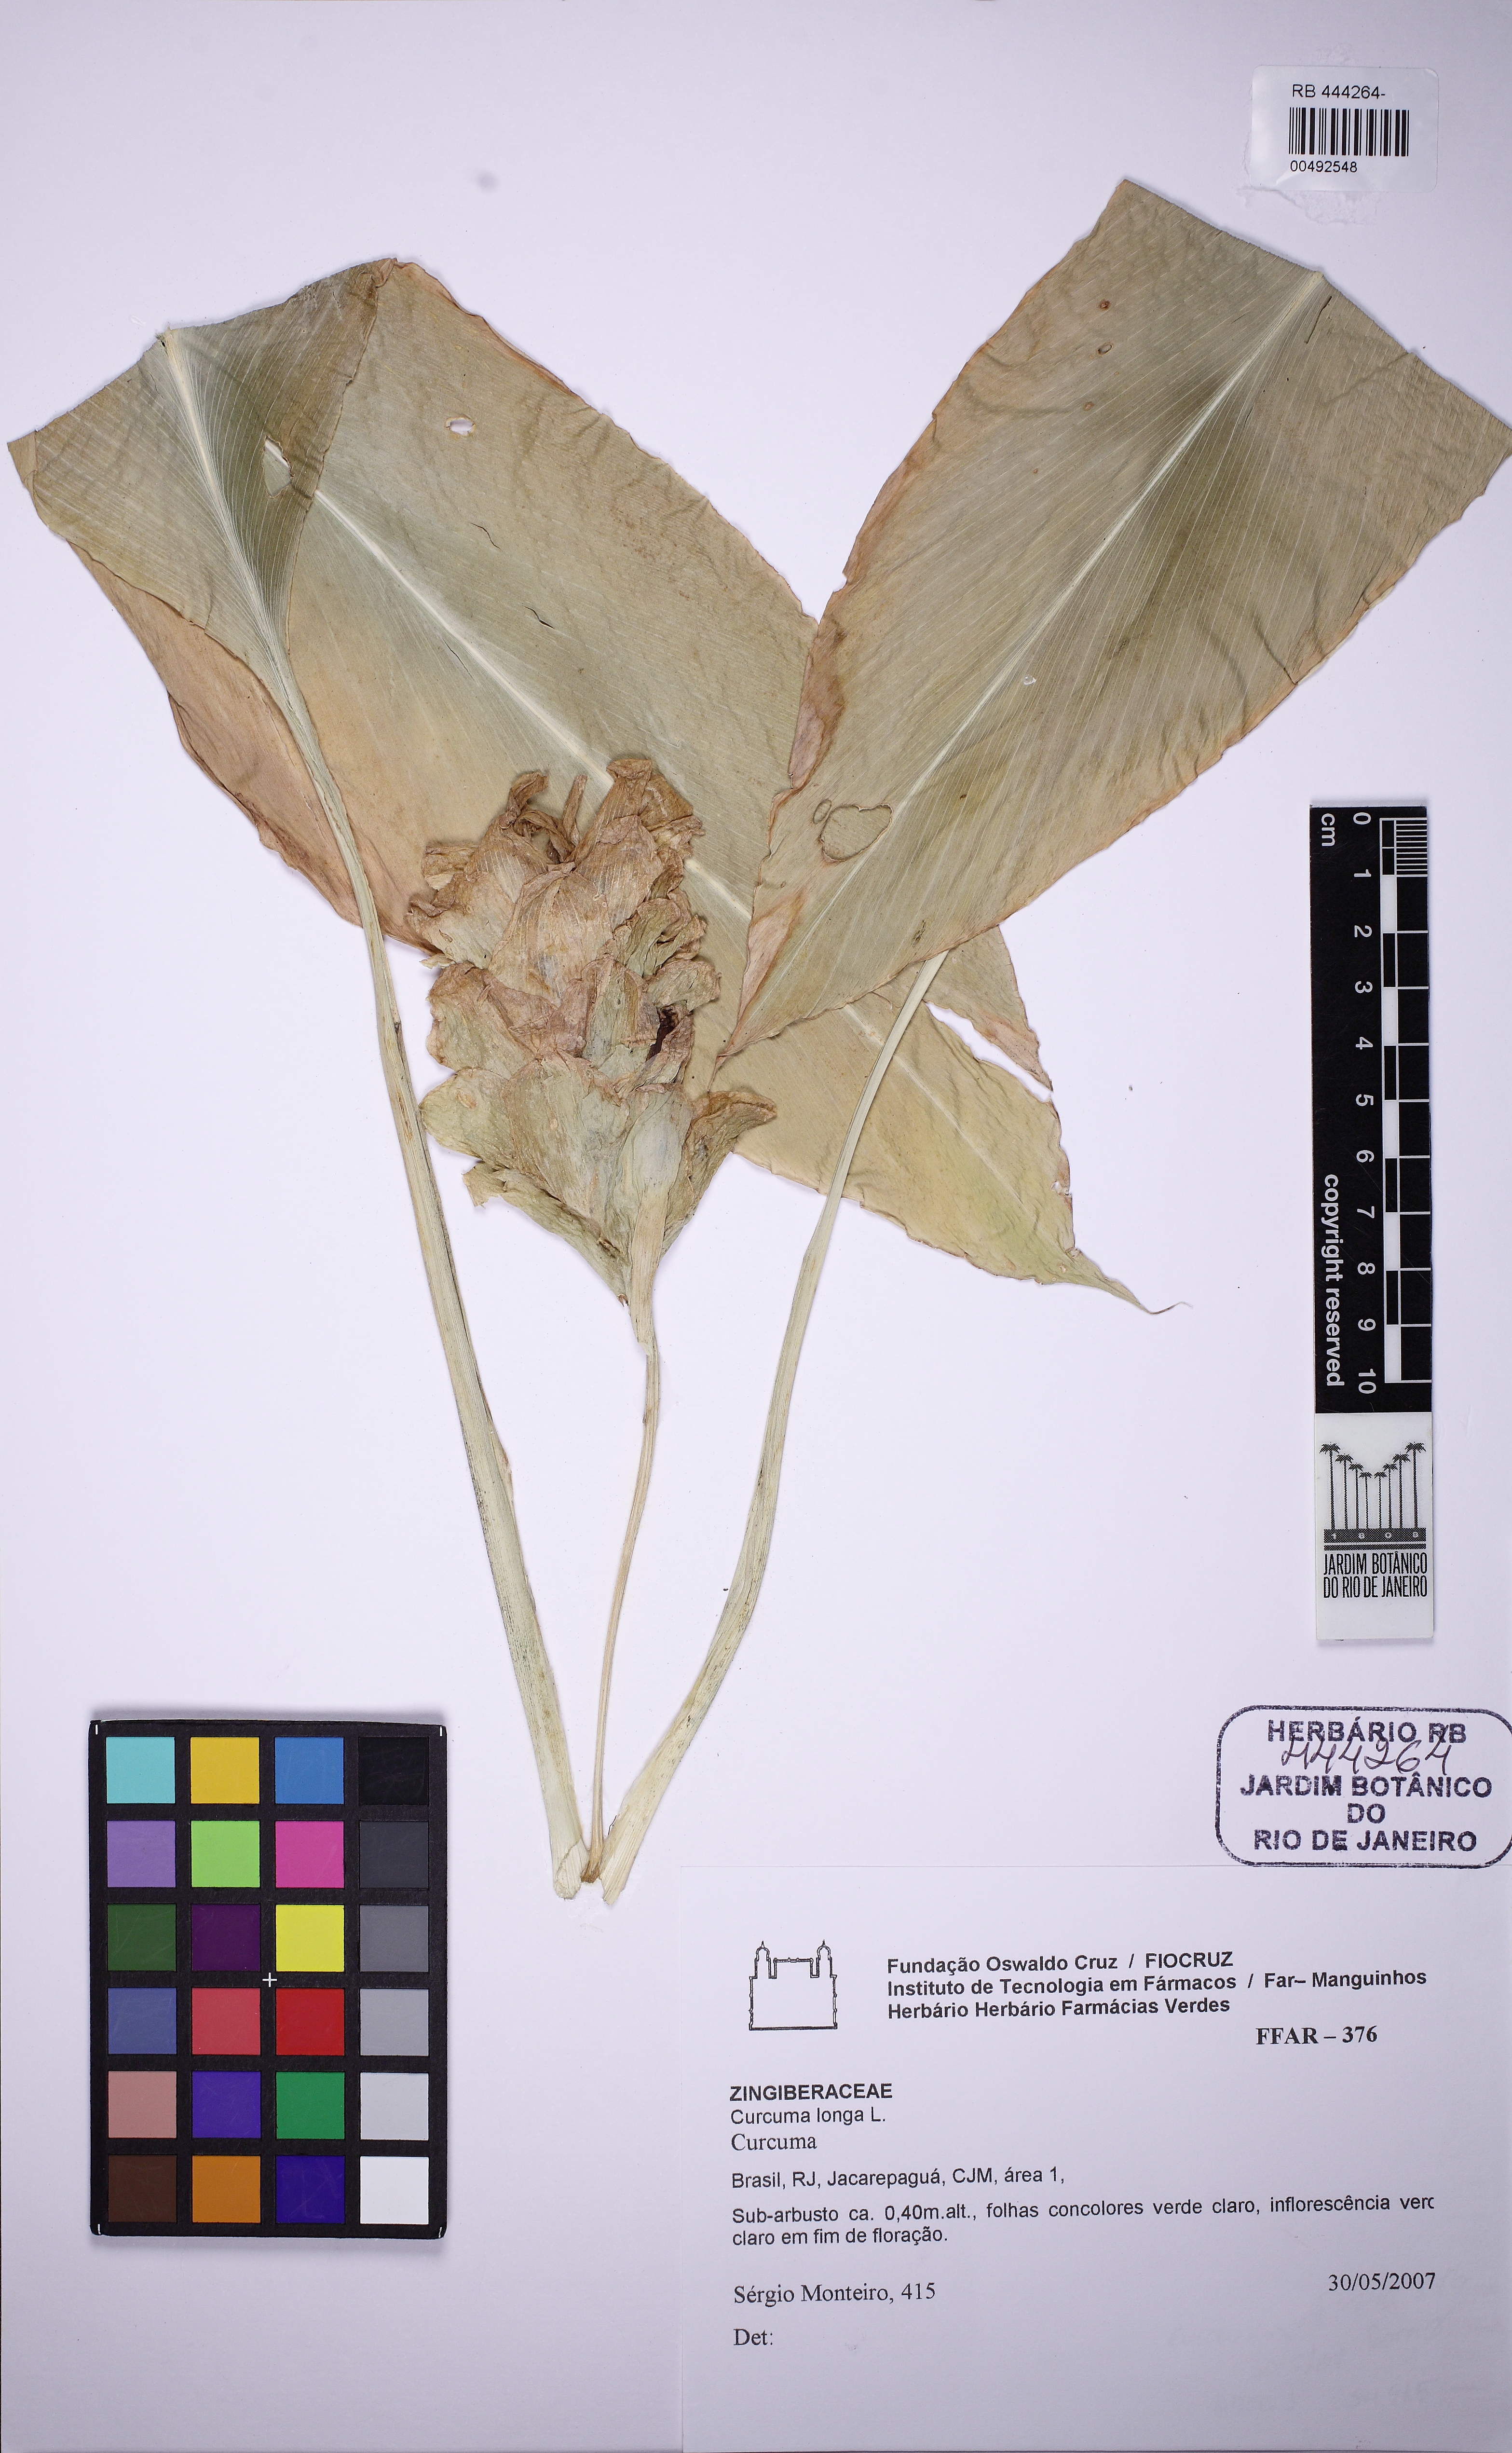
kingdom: Plantae
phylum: Tracheophyta
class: Liliopsida
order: Zingiberales
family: Zingiberaceae
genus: Curcuma
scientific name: Curcuma longa
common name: Turmeric
